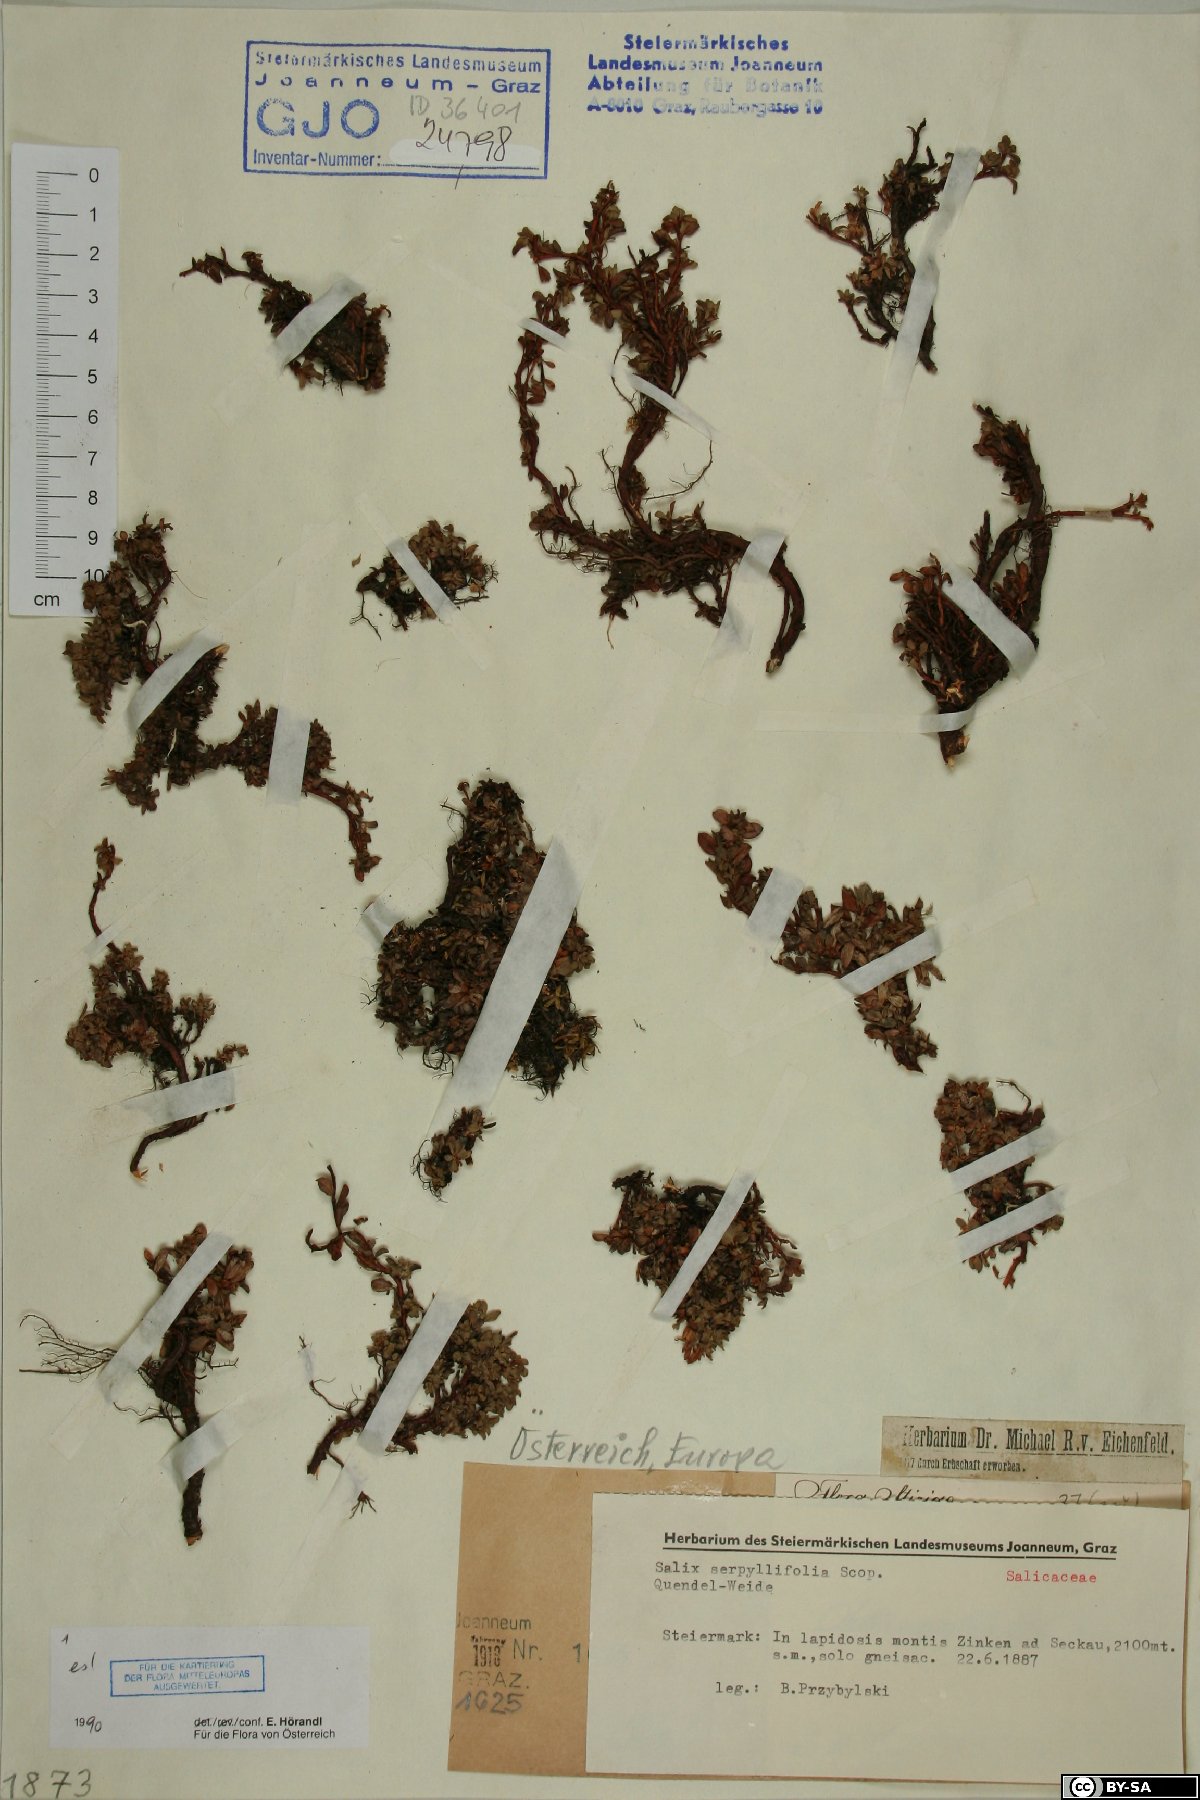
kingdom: Plantae
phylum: Tracheophyta
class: Magnoliopsida
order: Malpighiales
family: Salicaceae
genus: Salix
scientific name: Salix serpillifolia
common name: Thyme-leaf willow
